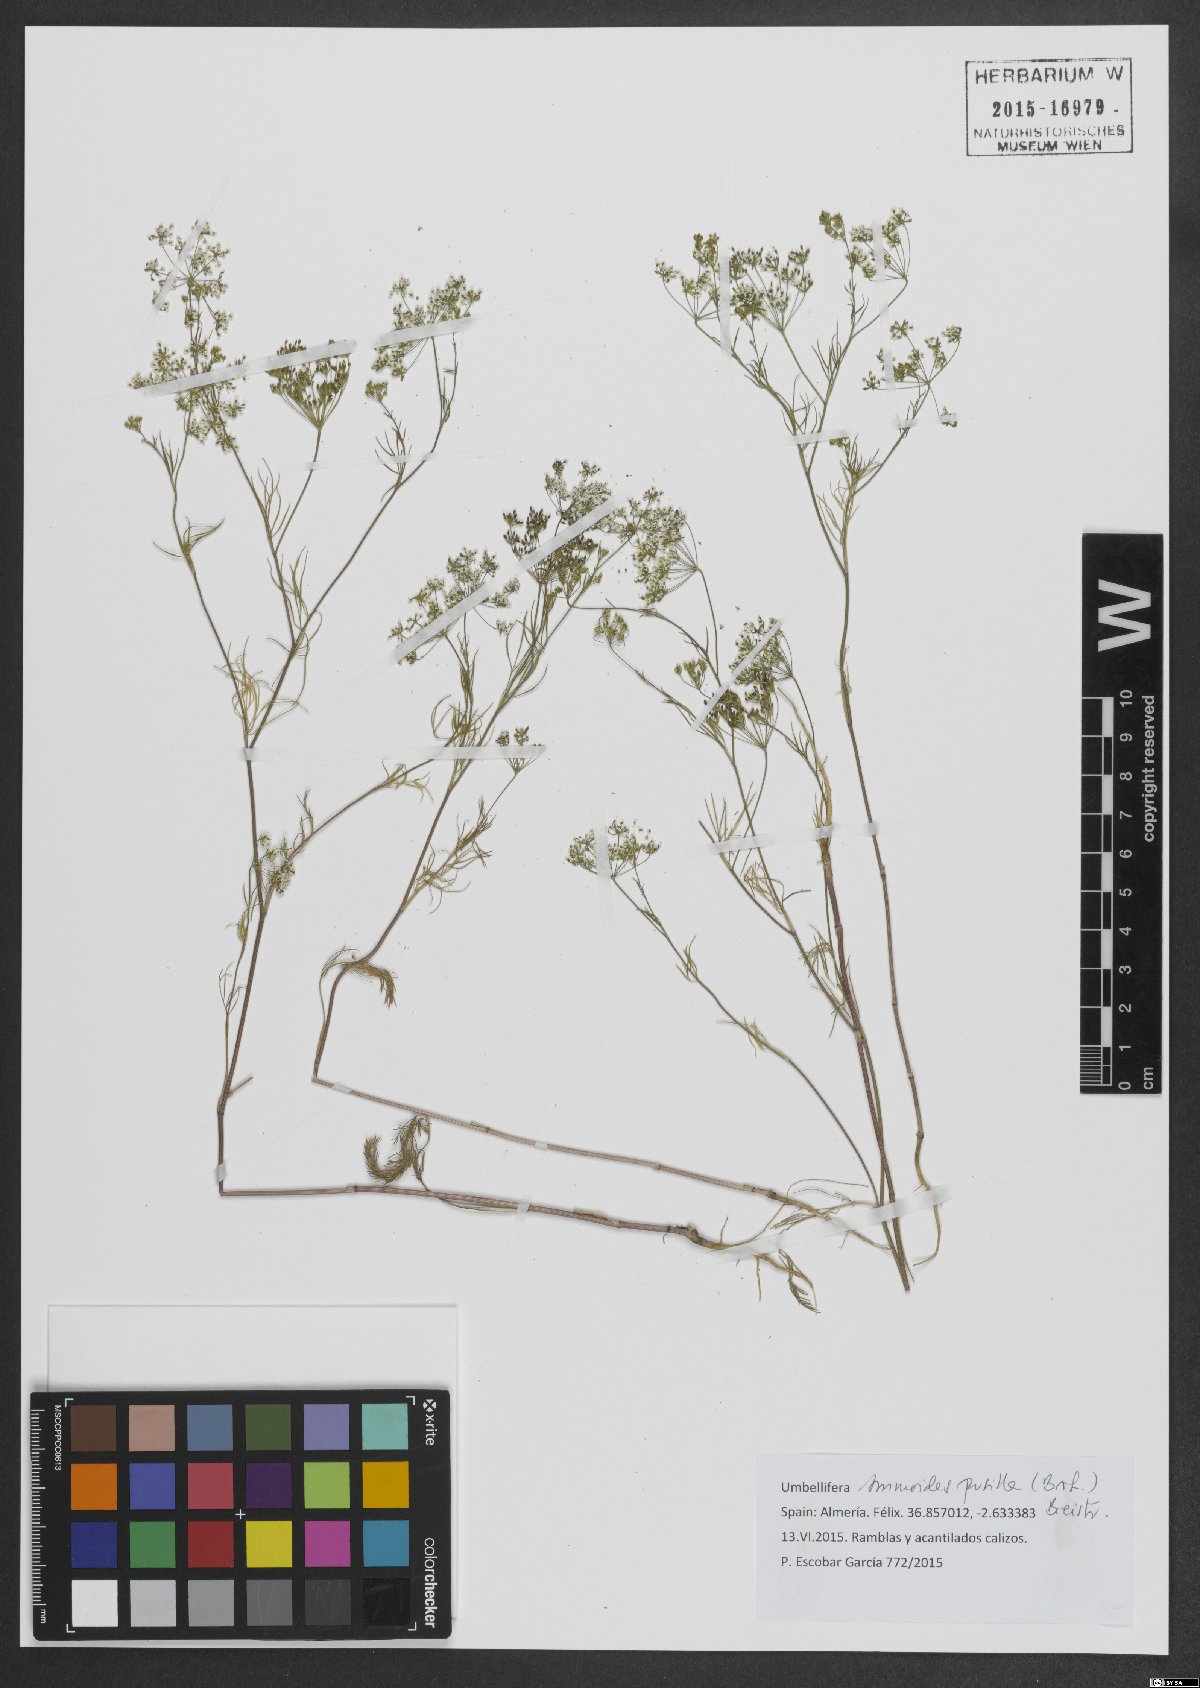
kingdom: Plantae
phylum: Tracheophyta
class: Magnoliopsida
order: Apiales
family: Apiaceae
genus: Ammoides
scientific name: Ammoides pusilla
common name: Cerfolium
